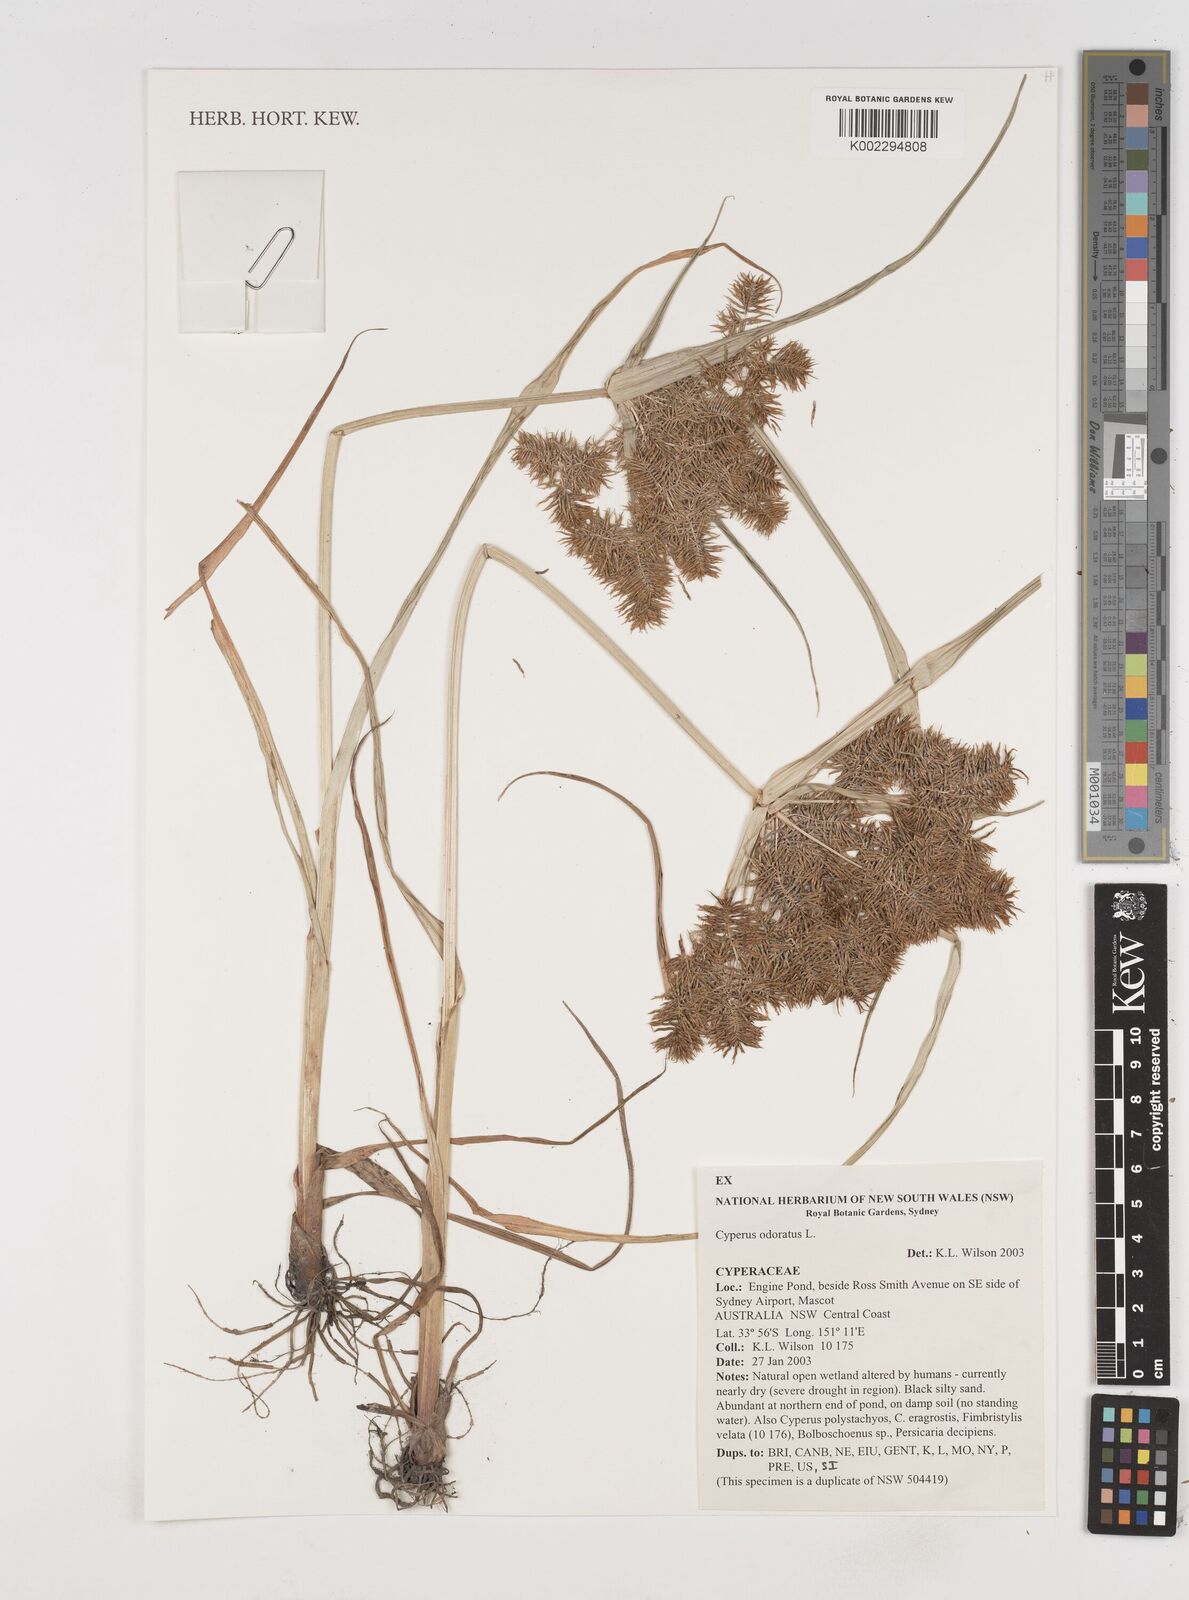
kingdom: Plantae
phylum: Tracheophyta
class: Liliopsida
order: Poales
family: Cyperaceae
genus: Cyperus
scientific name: Cyperus odoratus
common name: Fragrant flatsedge
